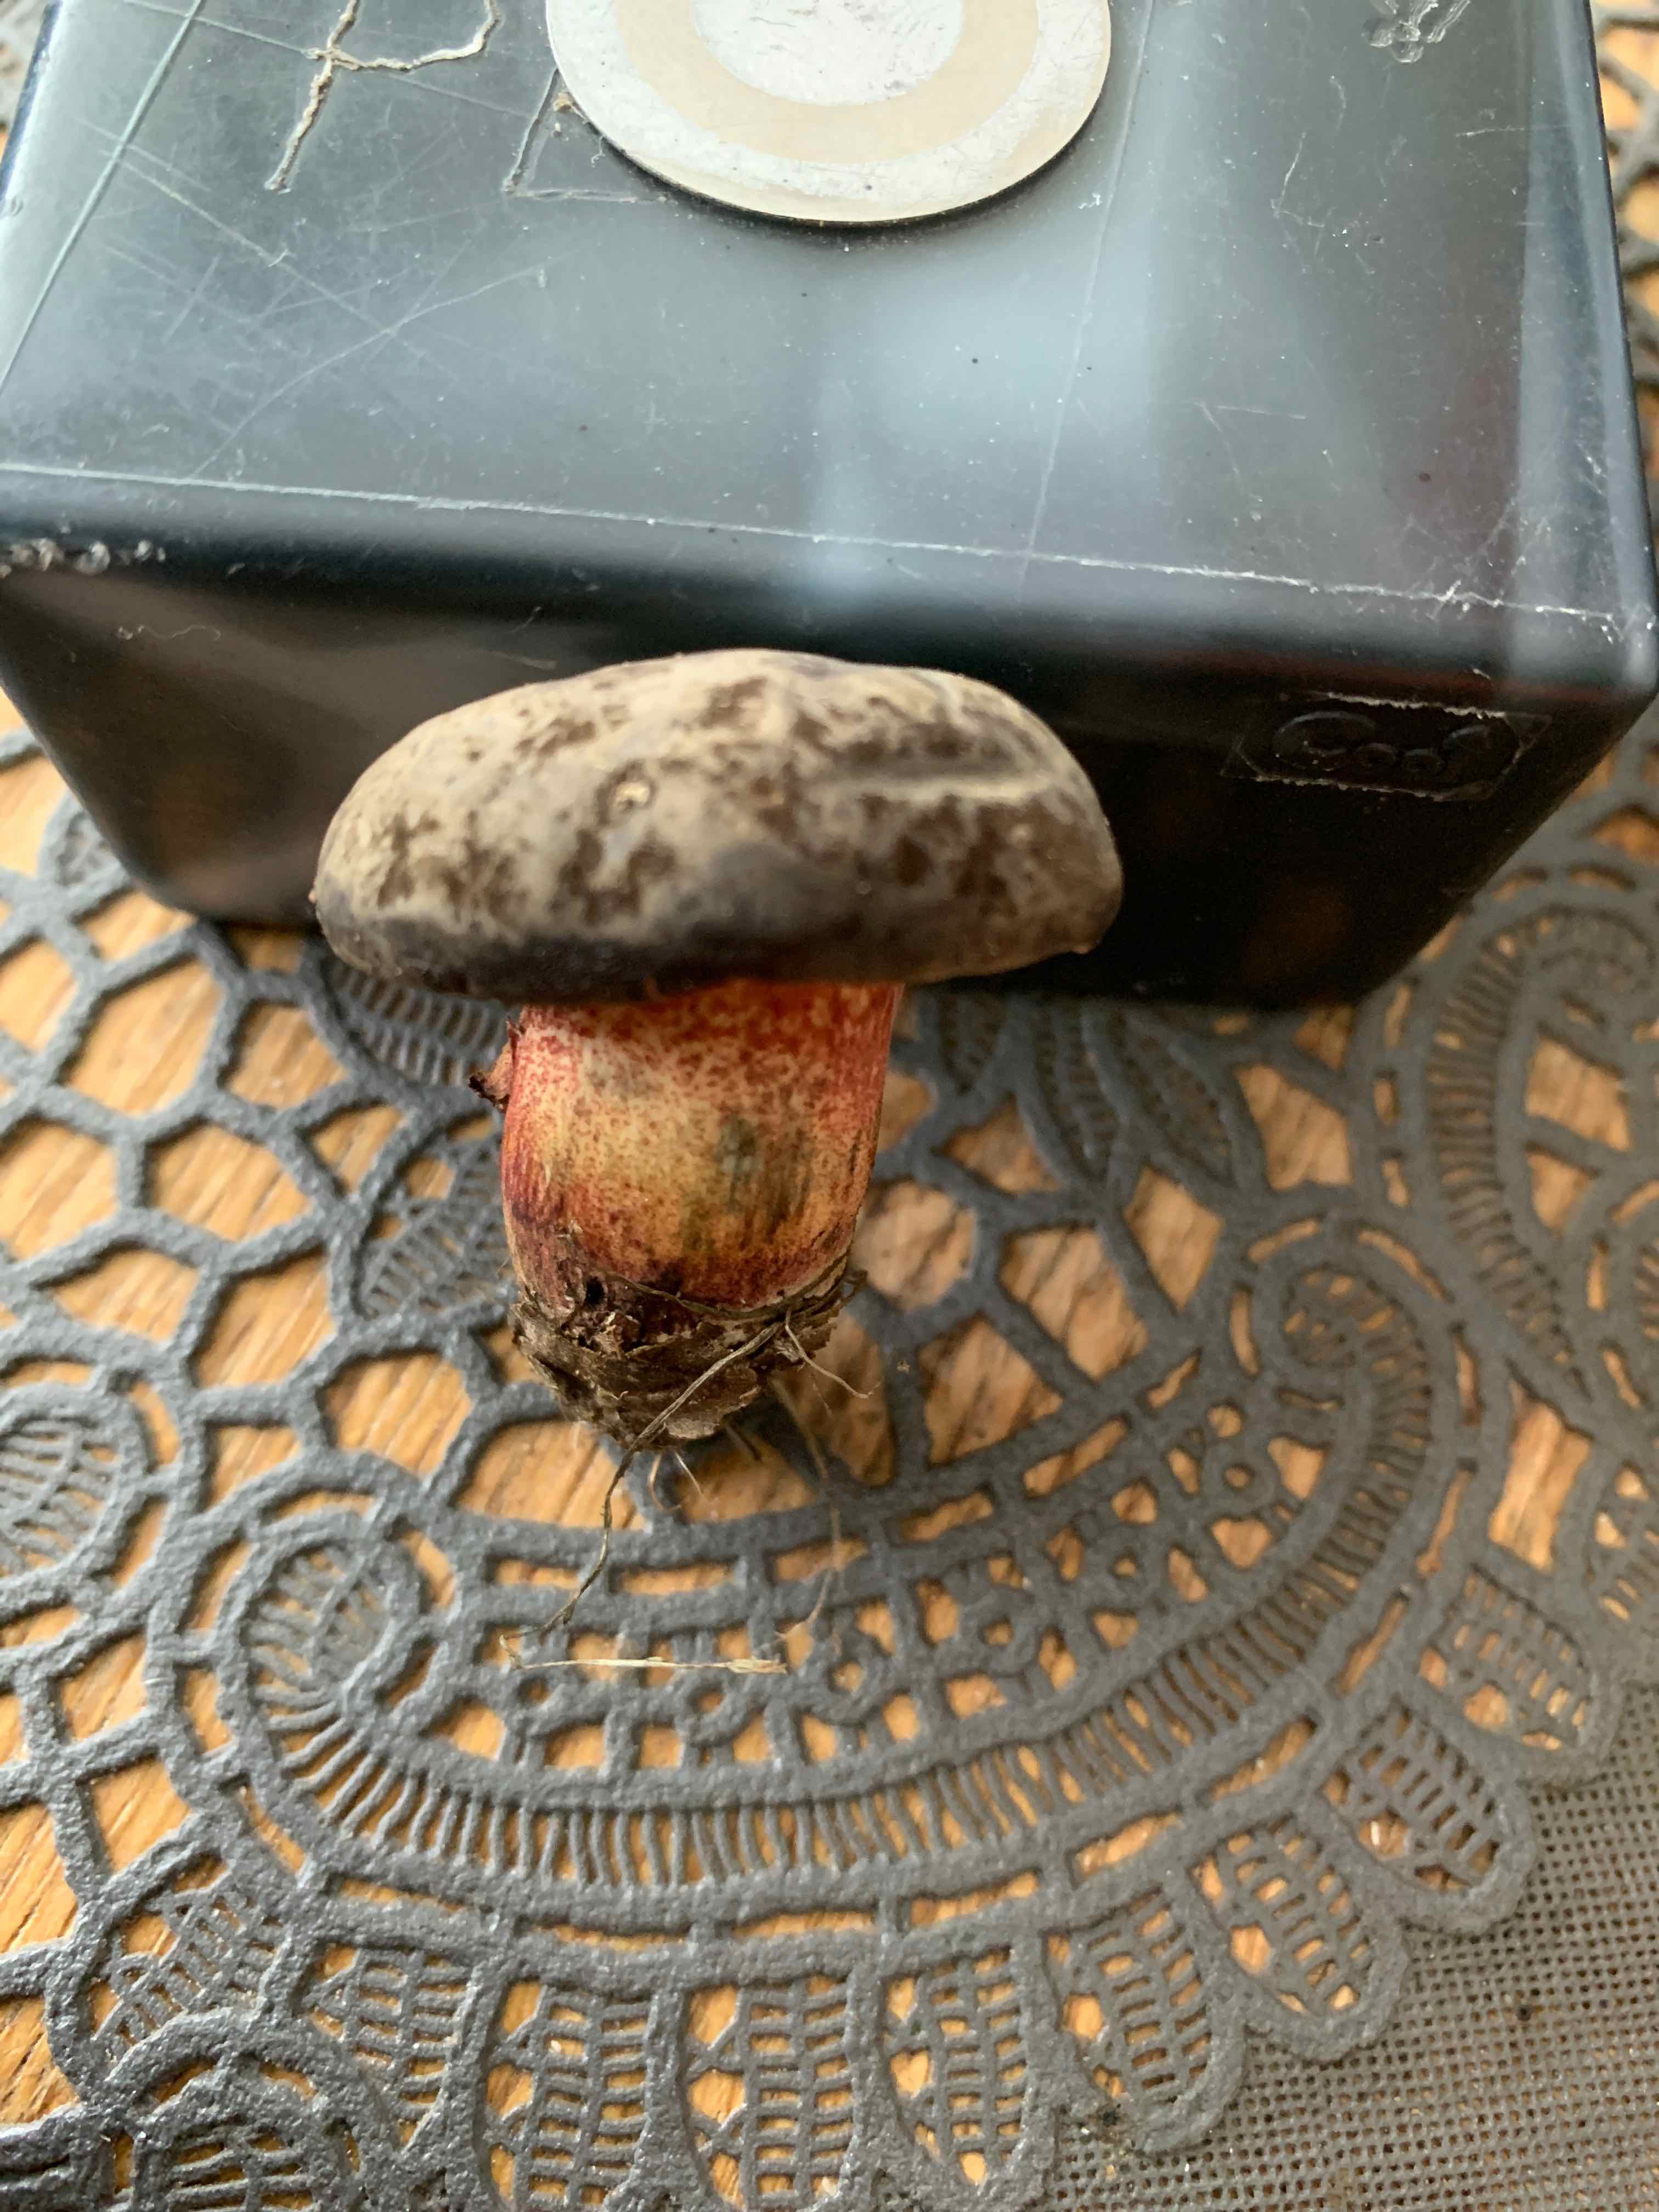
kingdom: Fungi
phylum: Basidiomycota
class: Agaricomycetes
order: Boletales
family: Boletaceae
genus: Neoboletus
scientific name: Neoboletus erythropus
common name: punktstokket indigorørhat
